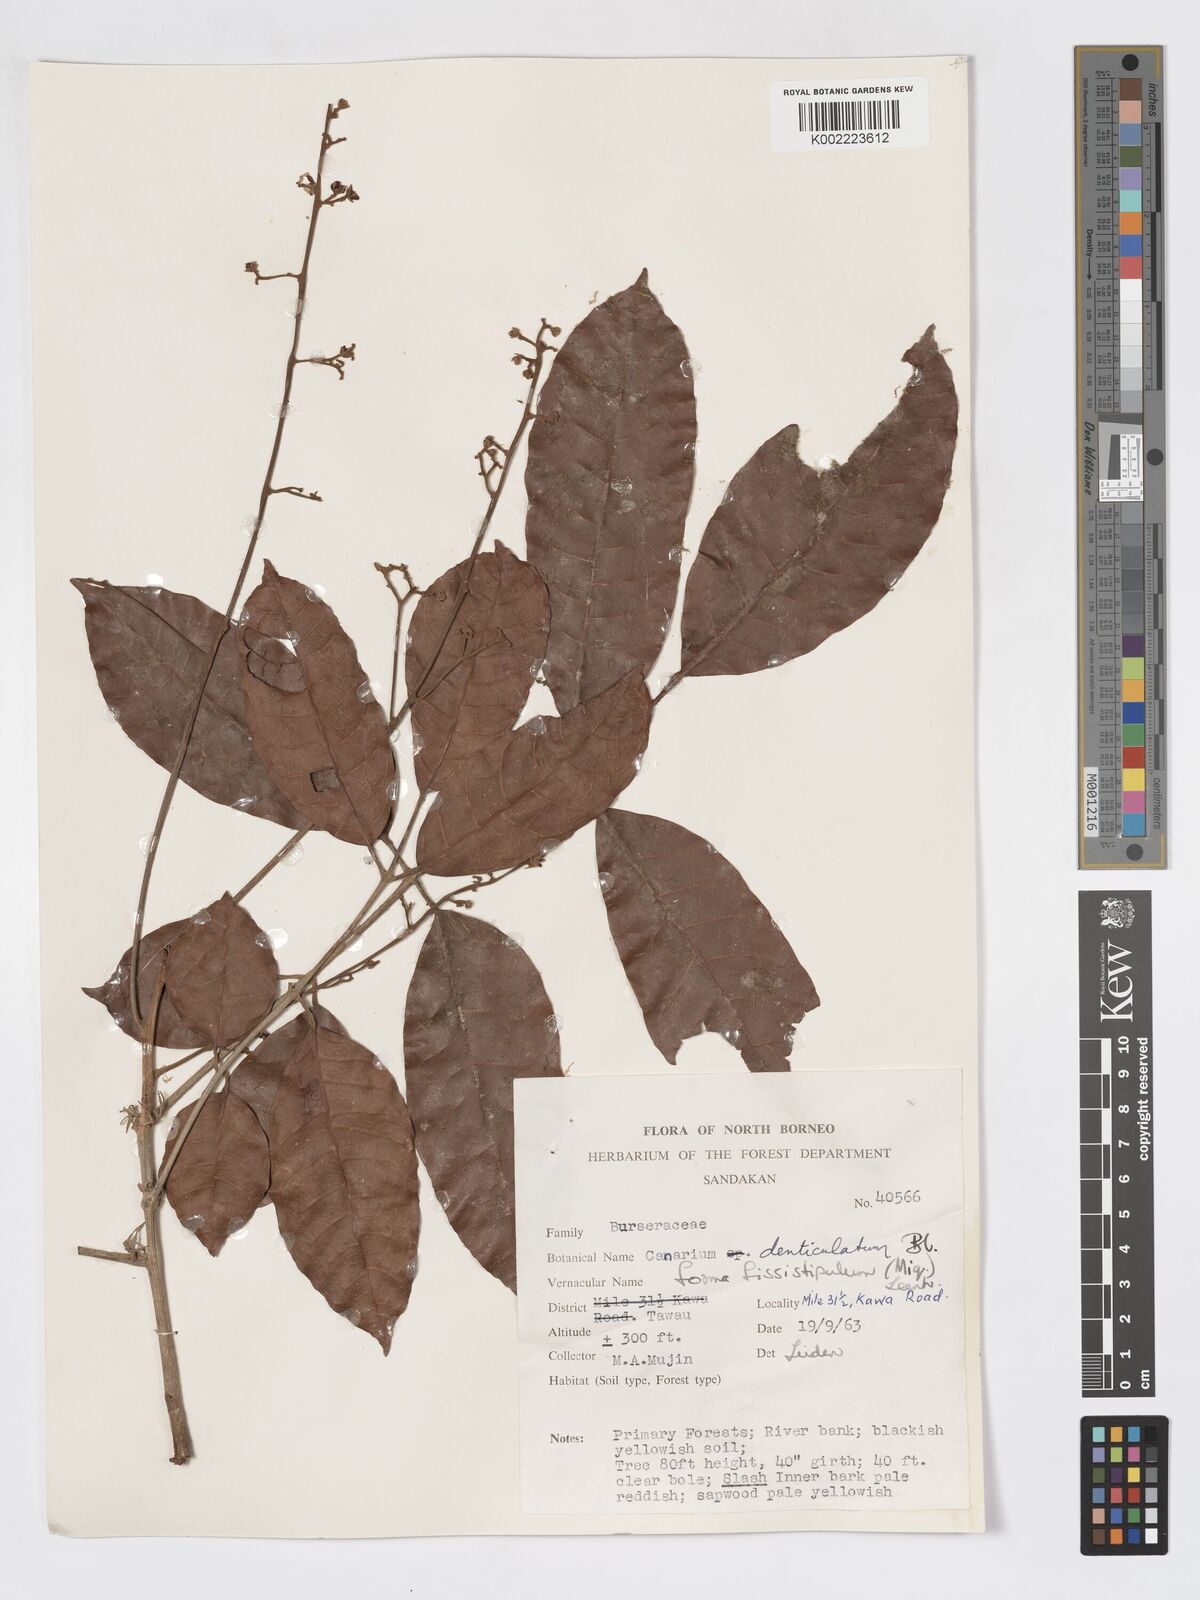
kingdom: Plantae
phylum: Tracheophyta
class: Magnoliopsida
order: Sapindales
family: Burseraceae
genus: Canarium
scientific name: Canarium denticulatum
